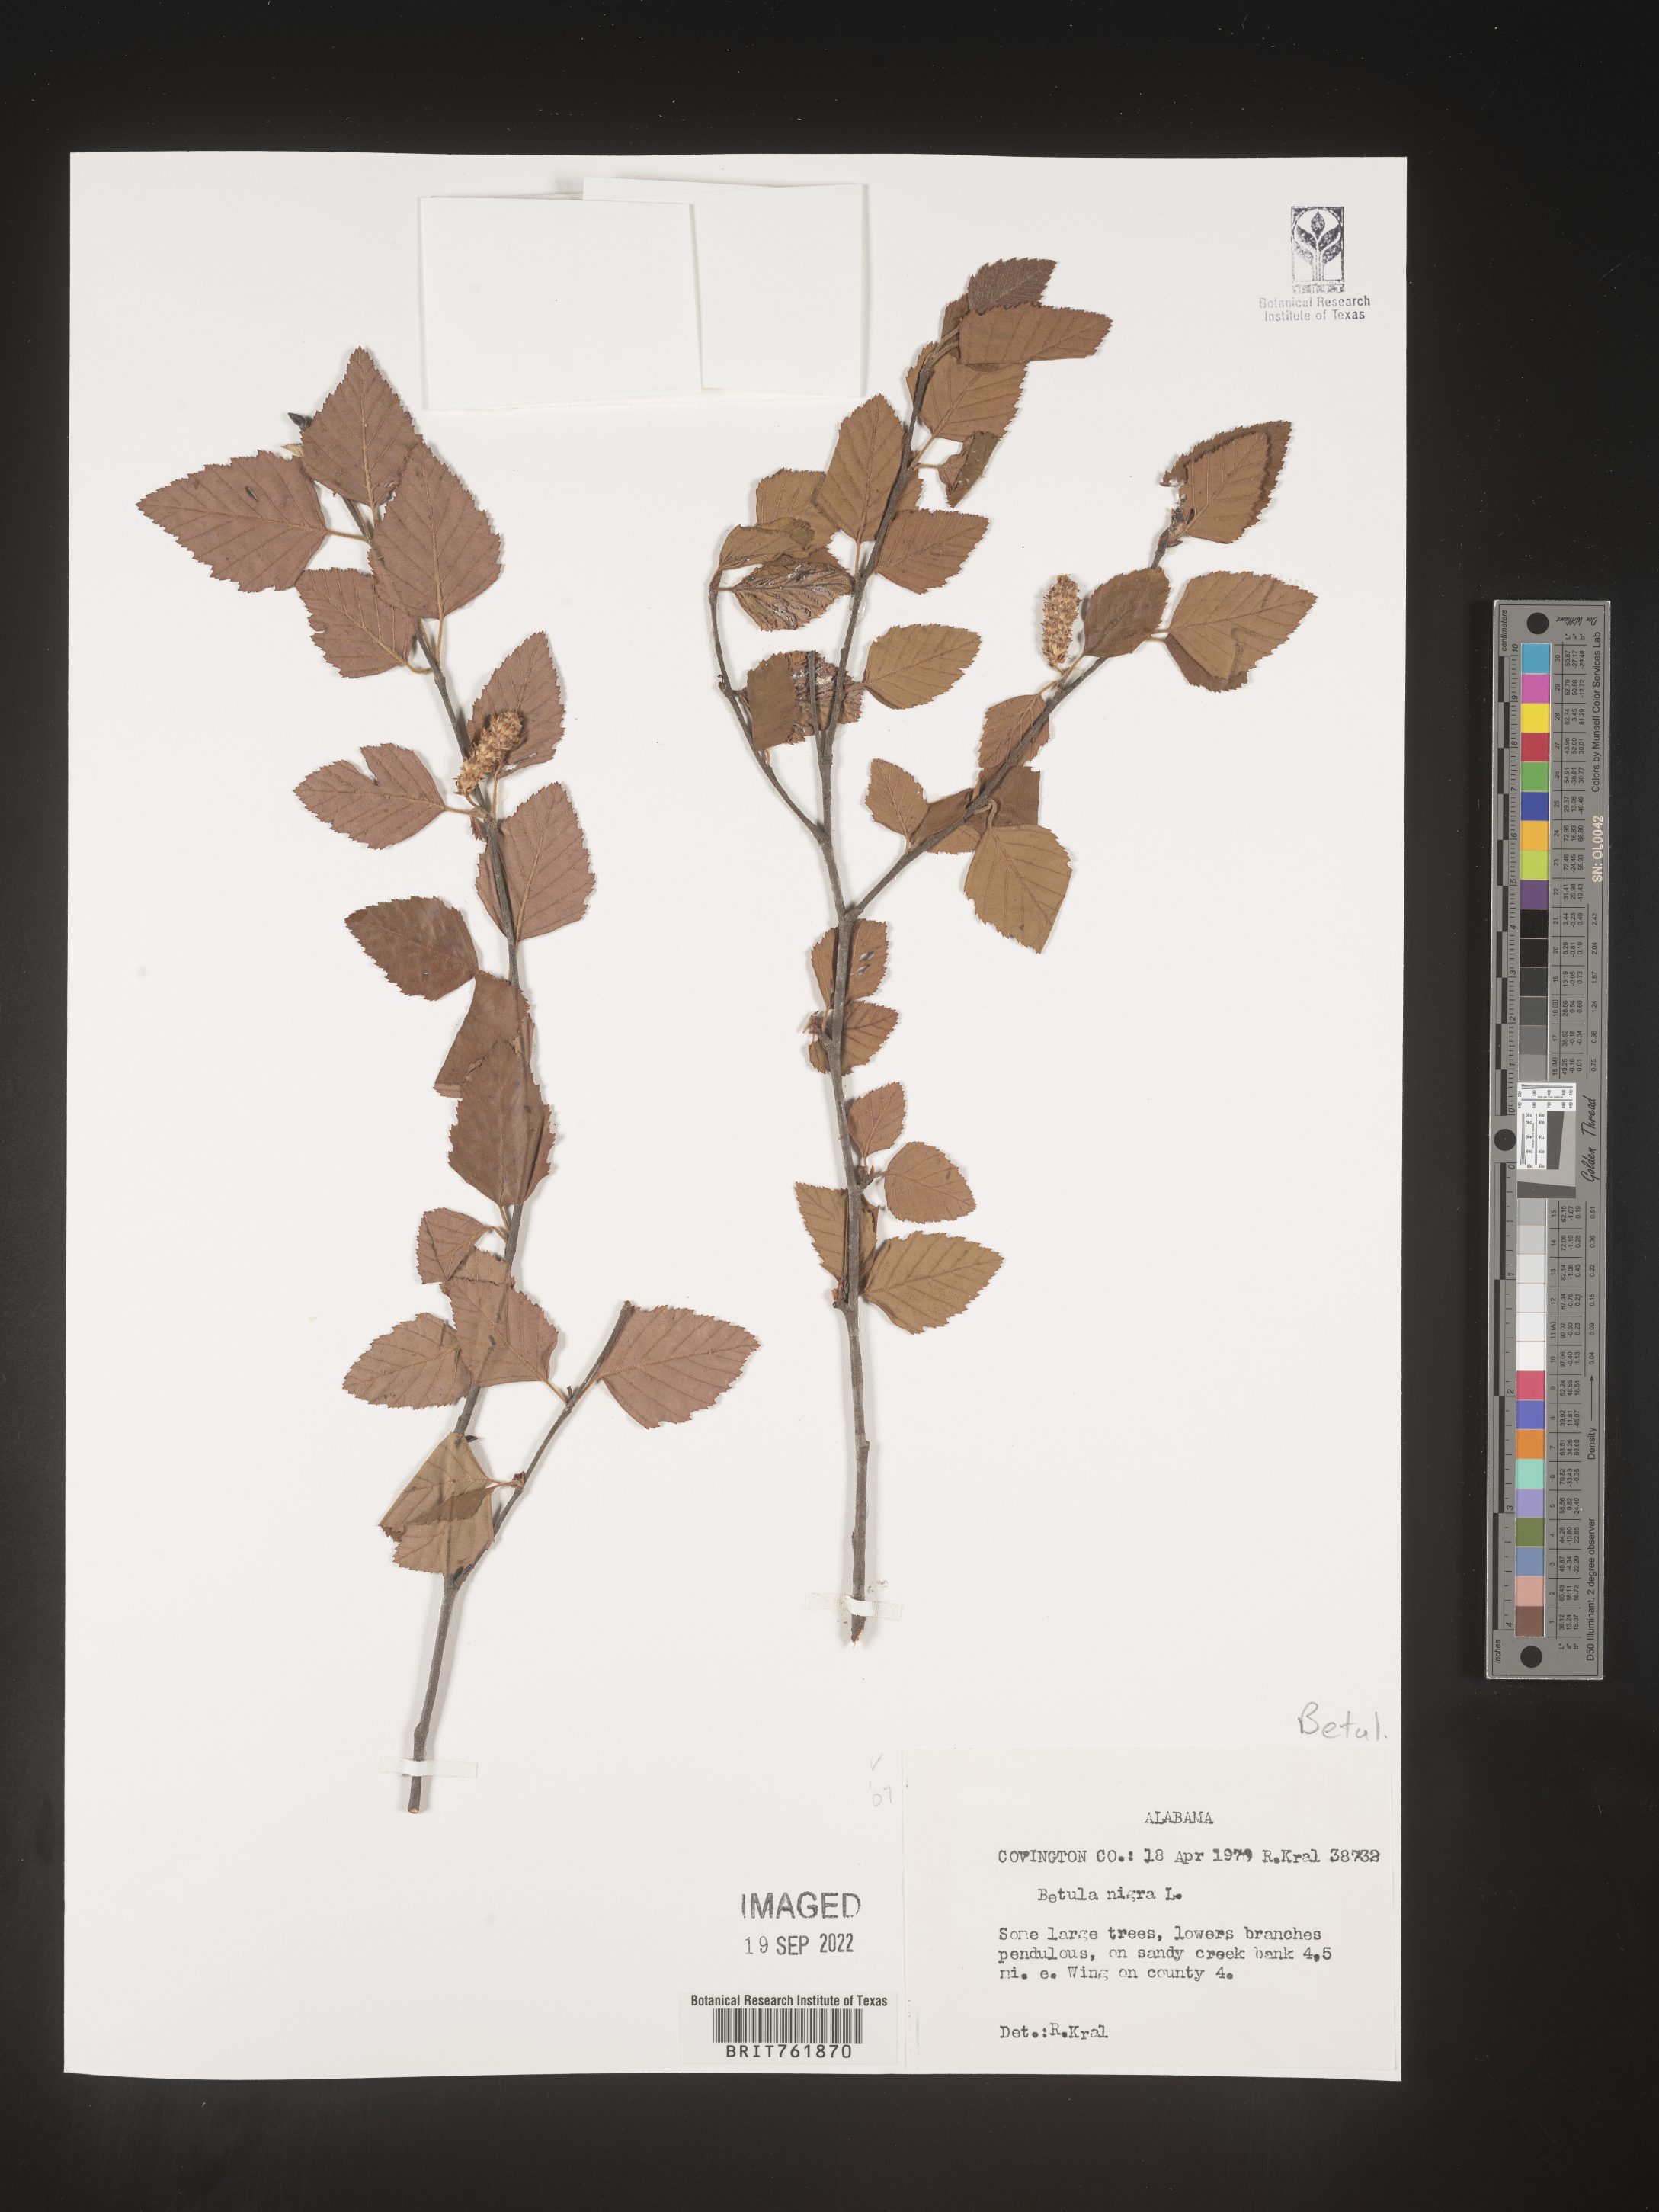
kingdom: Plantae
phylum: Tracheophyta
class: Magnoliopsida
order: Fagales
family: Betulaceae
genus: Betula
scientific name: Betula nigra
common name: Black birch
